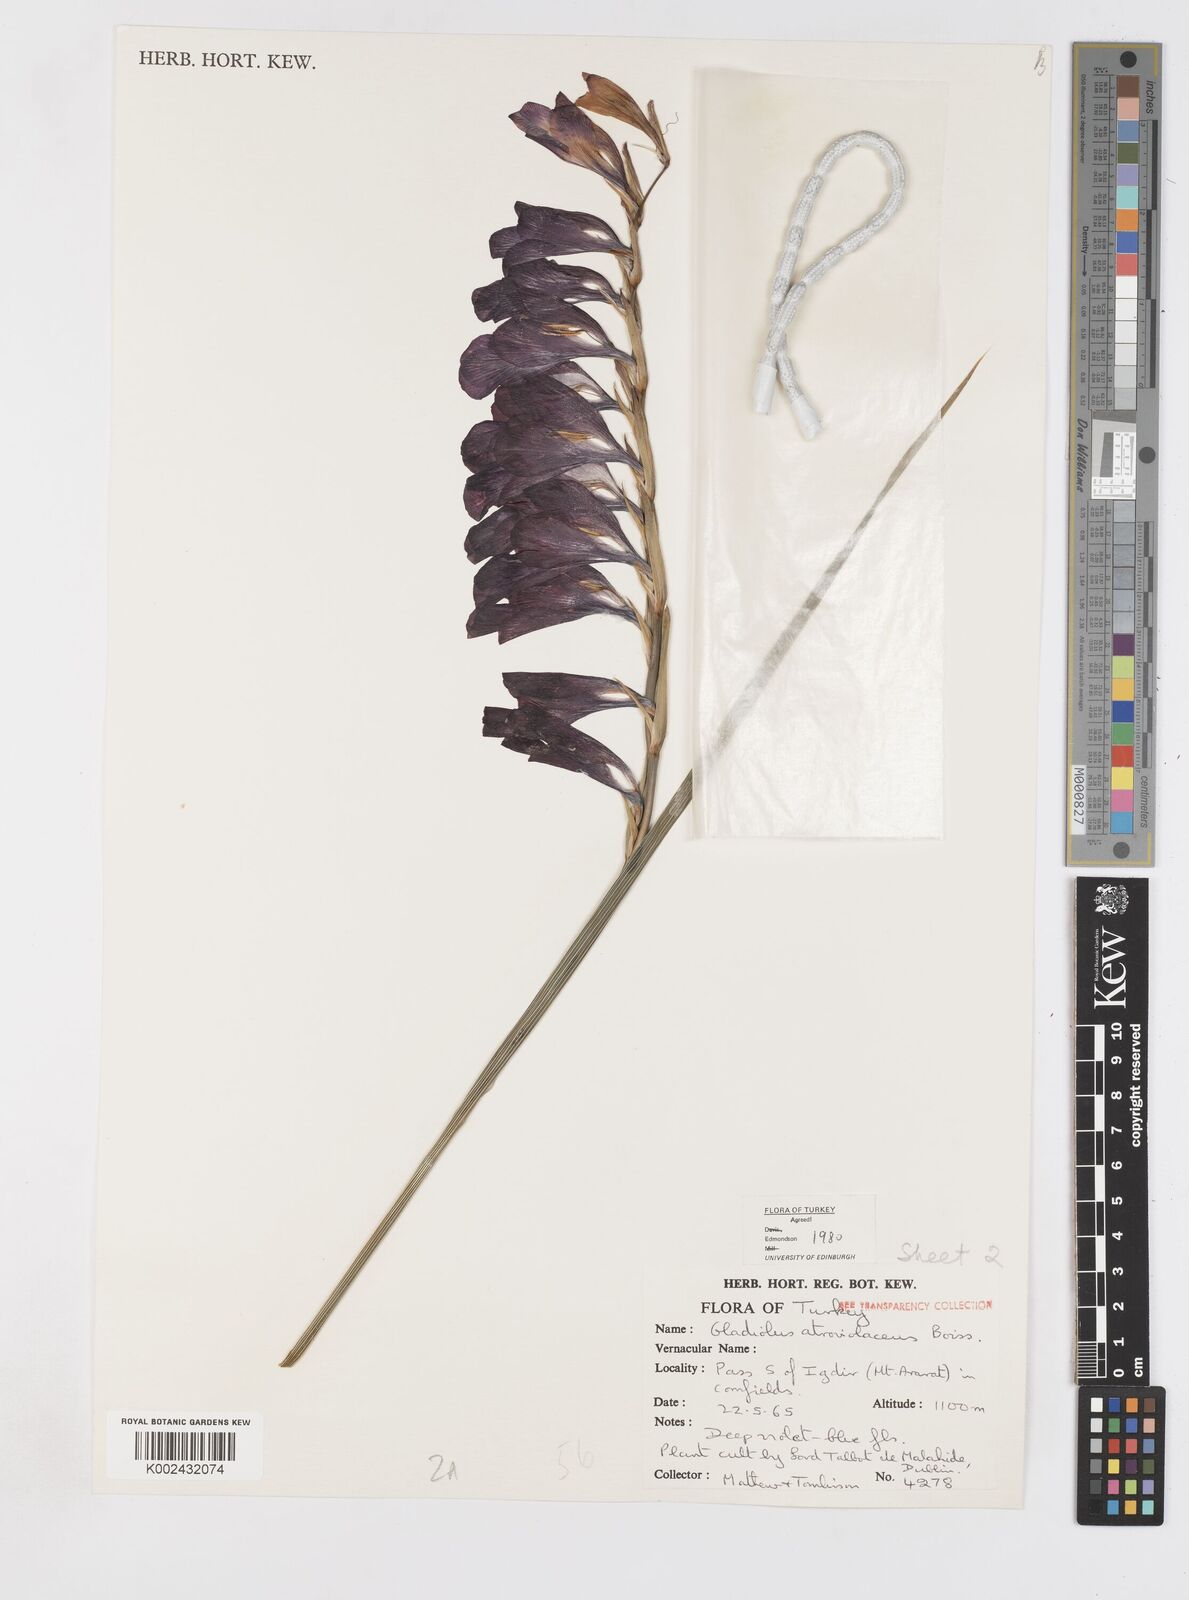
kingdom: Plantae
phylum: Tracheophyta
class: Liliopsida
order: Asparagales
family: Iridaceae
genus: Gladiolus
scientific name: Gladiolus atroviolaceus
